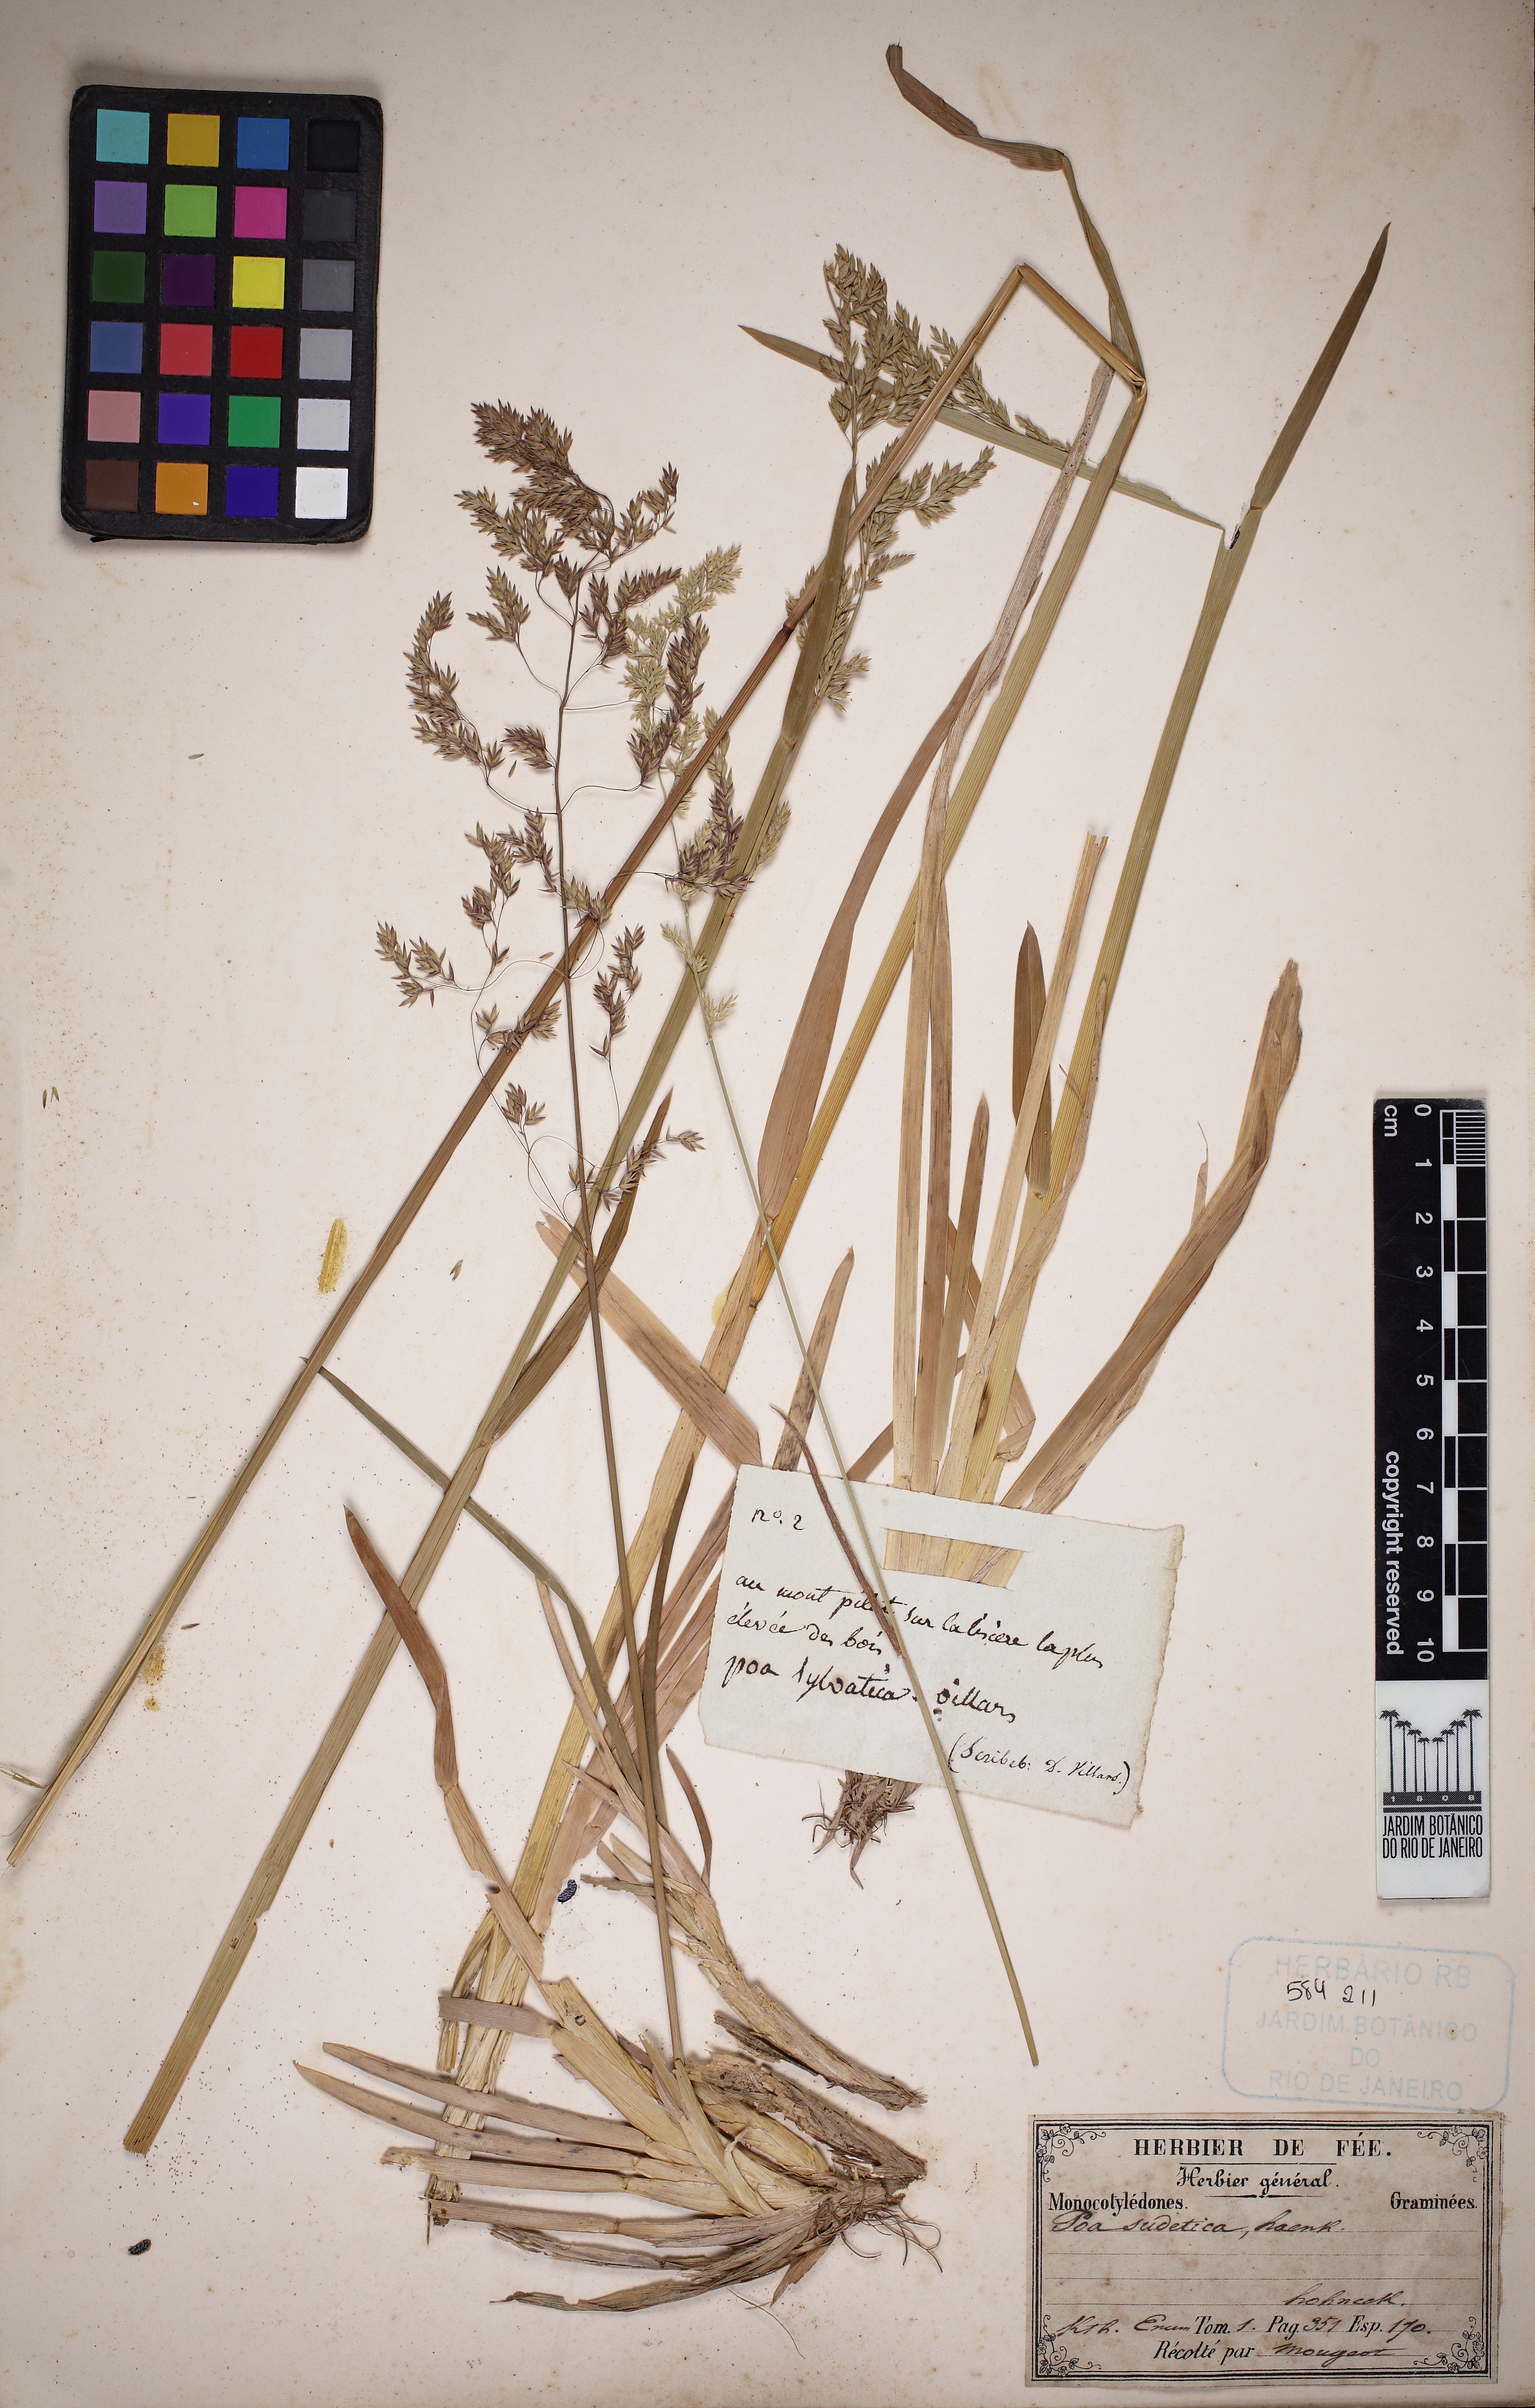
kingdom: Plantae
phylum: Tracheophyta
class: Liliopsida
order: Poales
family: Poaceae
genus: Poa
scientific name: Poa chaixii
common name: Broad-leaved meadow-grass
